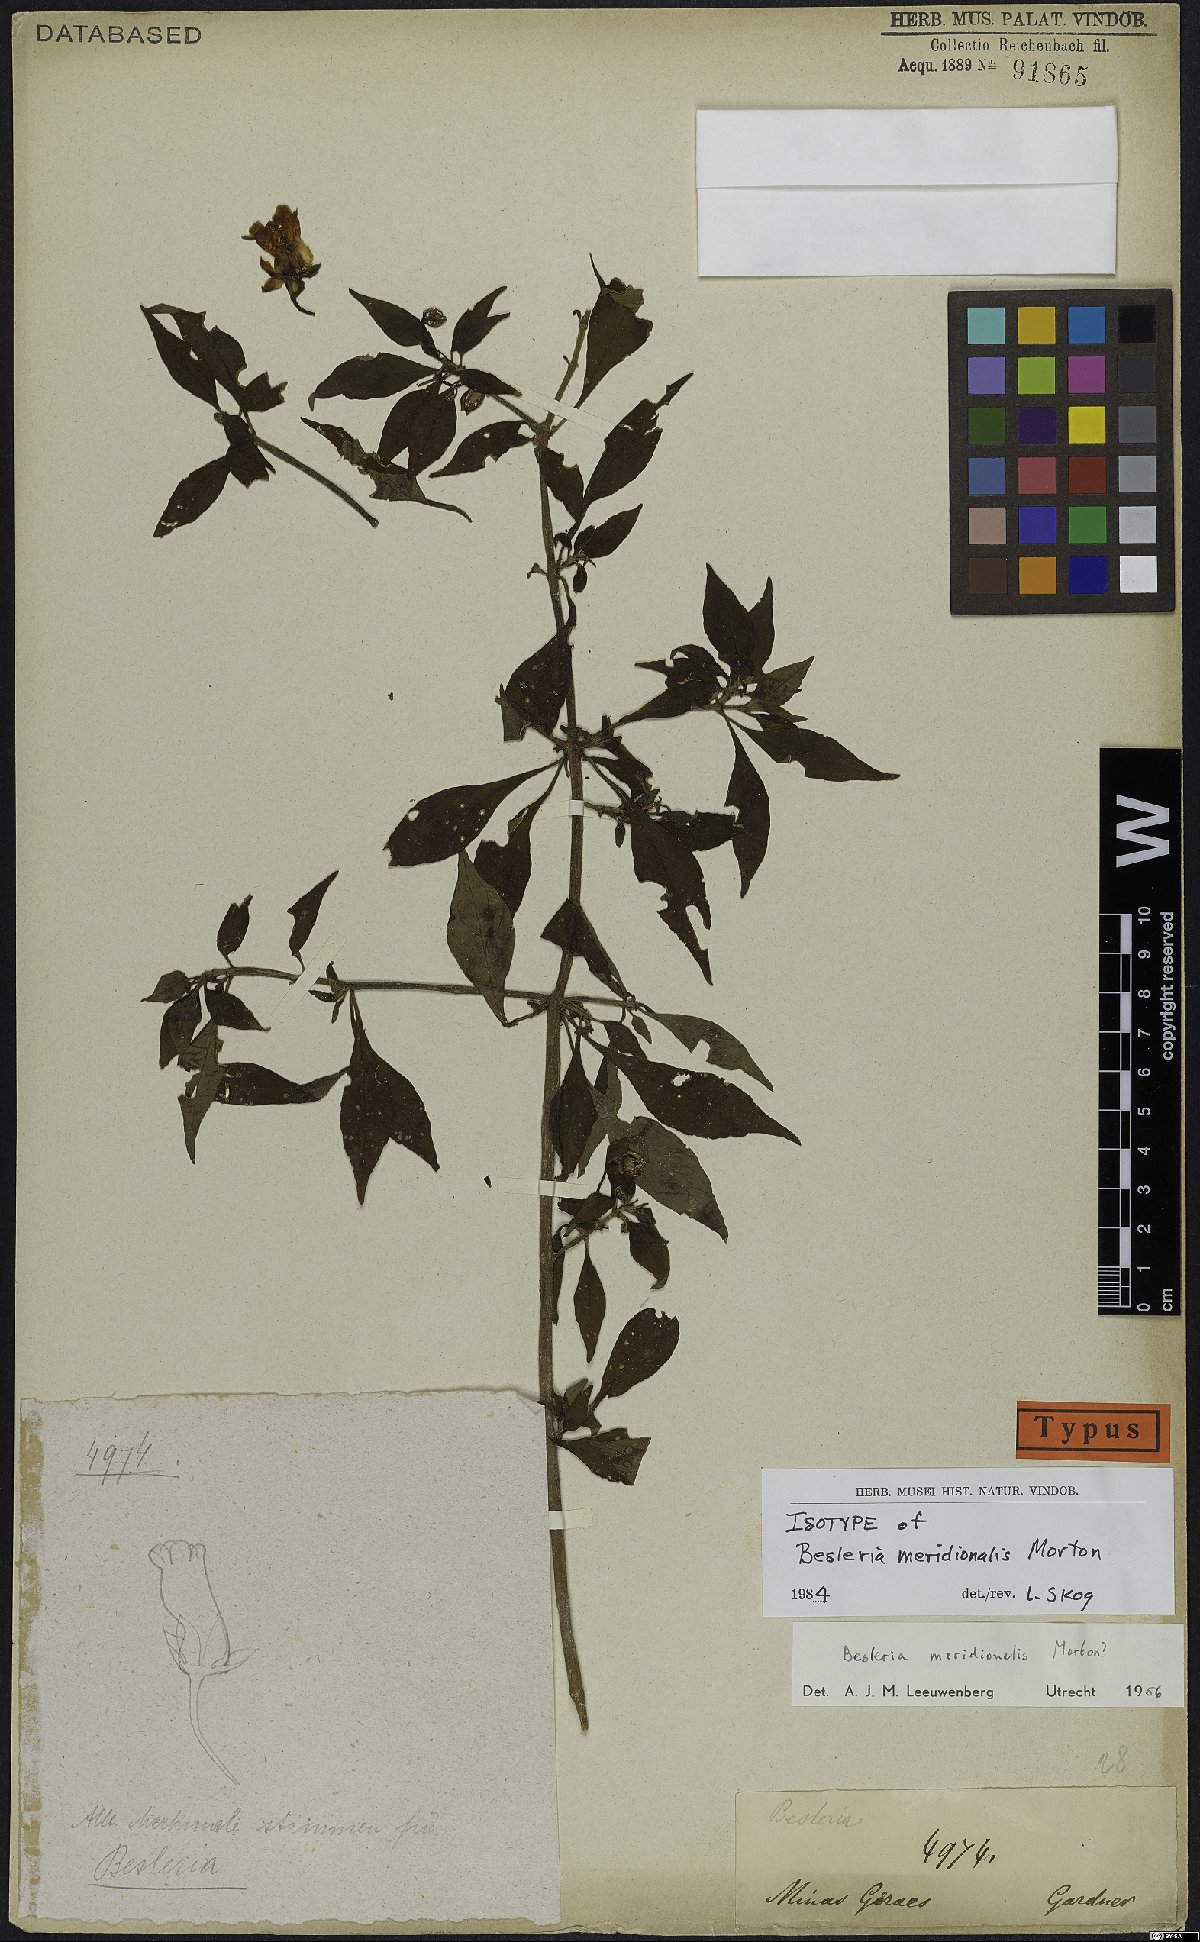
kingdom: Plantae
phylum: Tracheophyta
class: Magnoliopsida
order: Lamiales
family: Gesneriaceae
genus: Besleria
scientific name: Besleria meridionalis
